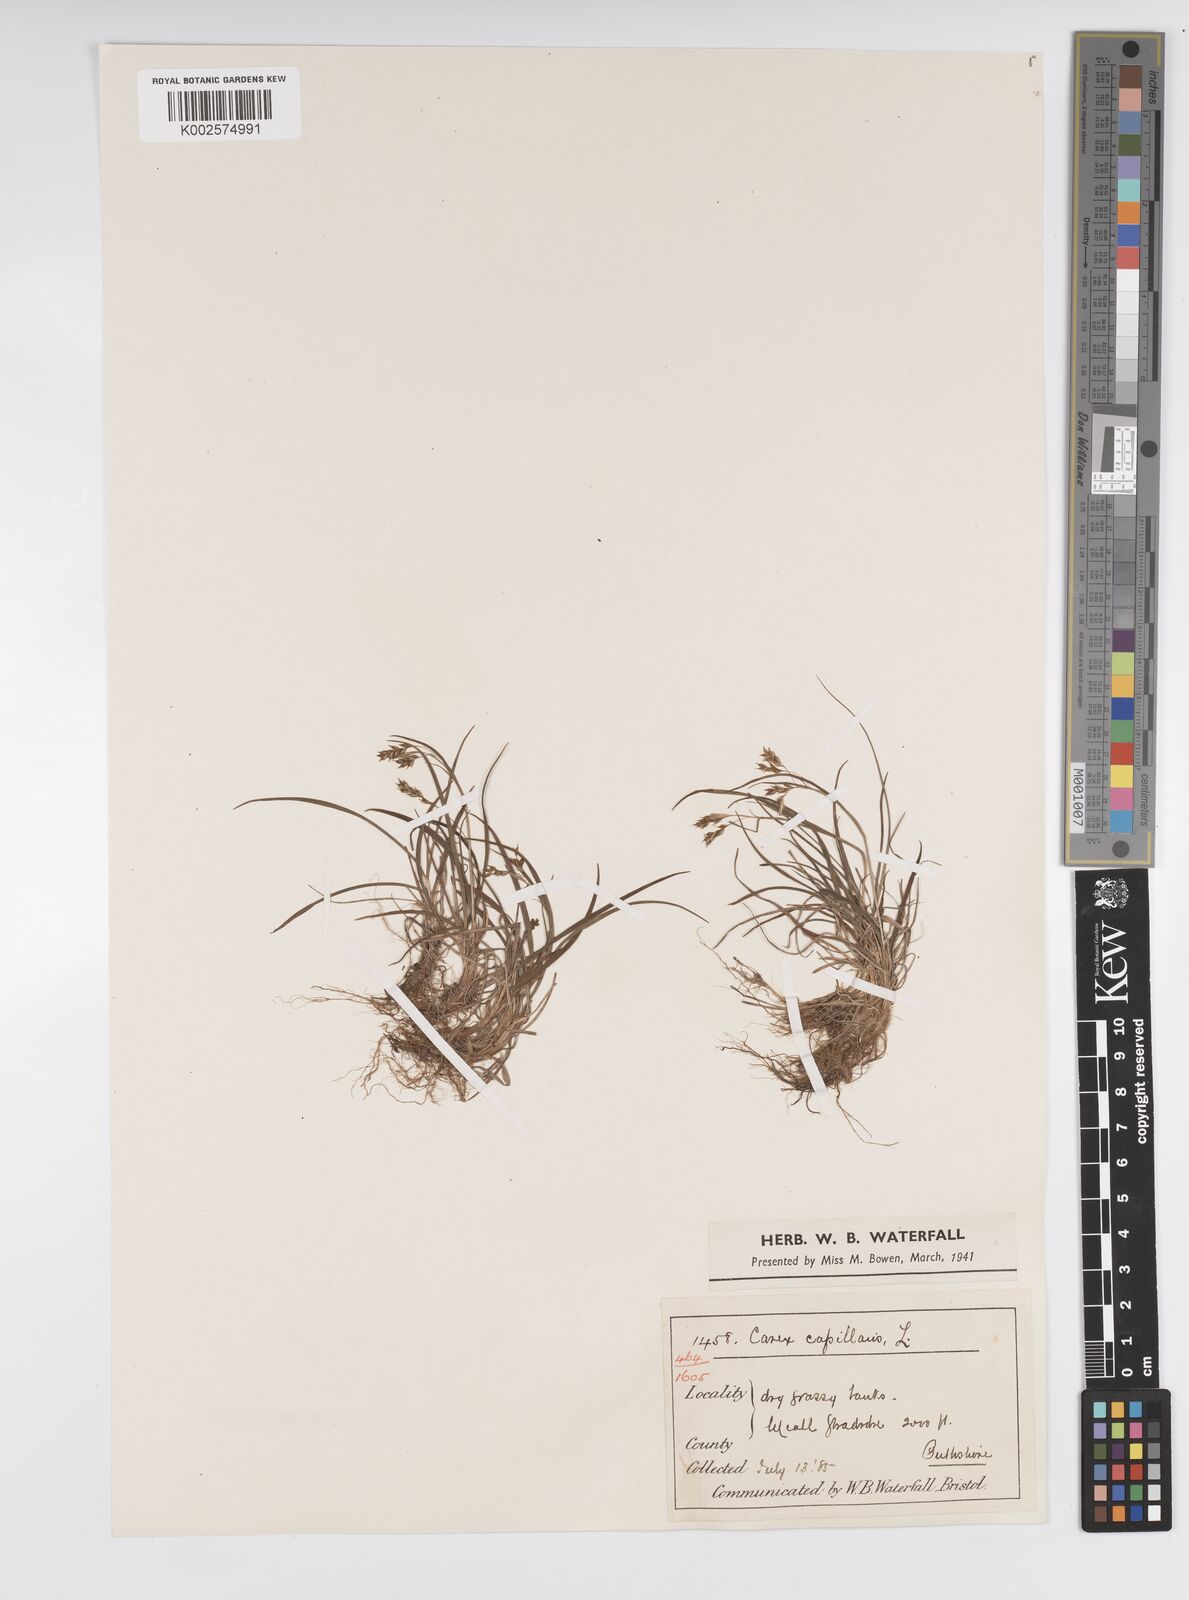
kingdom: Plantae
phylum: Tracheophyta
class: Liliopsida
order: Poales
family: Cyperaceae
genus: Carex
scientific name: Carex capillaris
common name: Hair sedge
